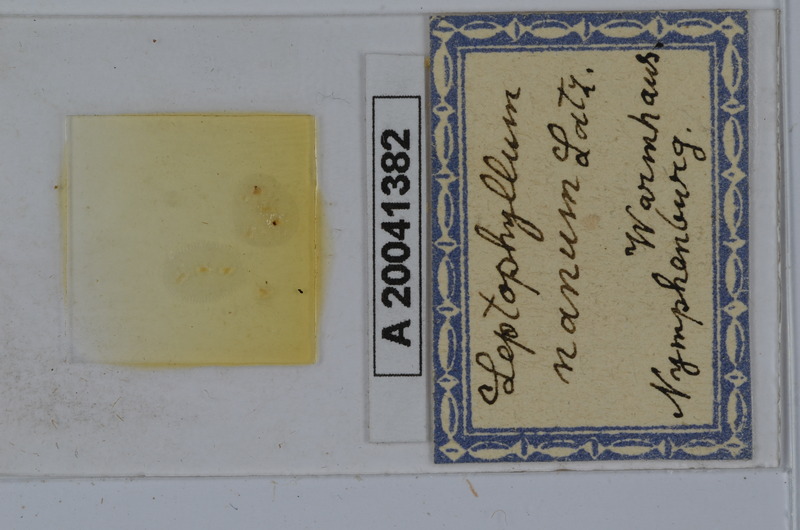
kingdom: Animalia
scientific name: Animalia
